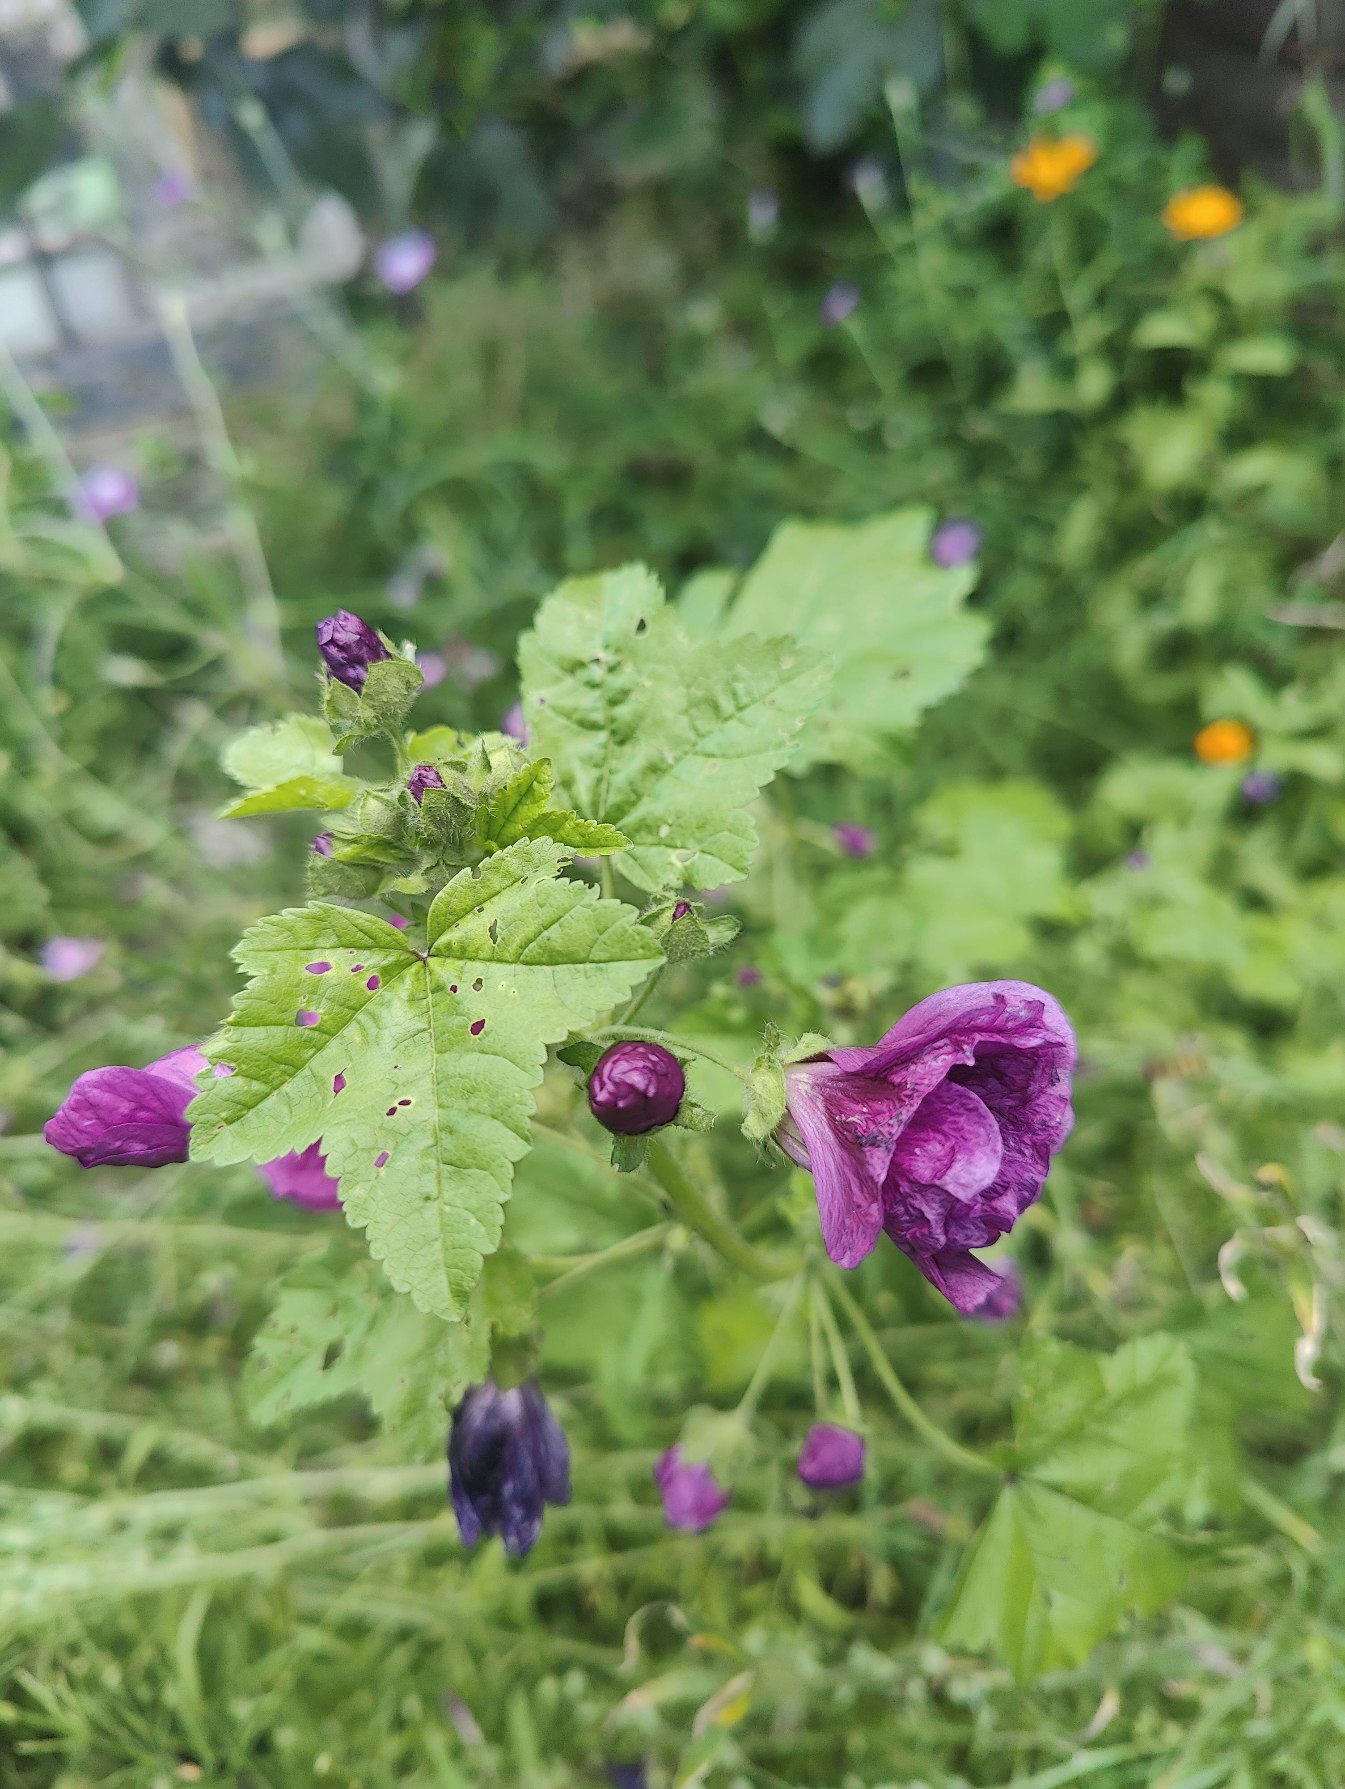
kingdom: Plantae
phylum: Tracheophyta
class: Magnoliopsida
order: Malvales
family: Malvaceae
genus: Malva
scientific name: Malva sylvestris
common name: Stor katost
